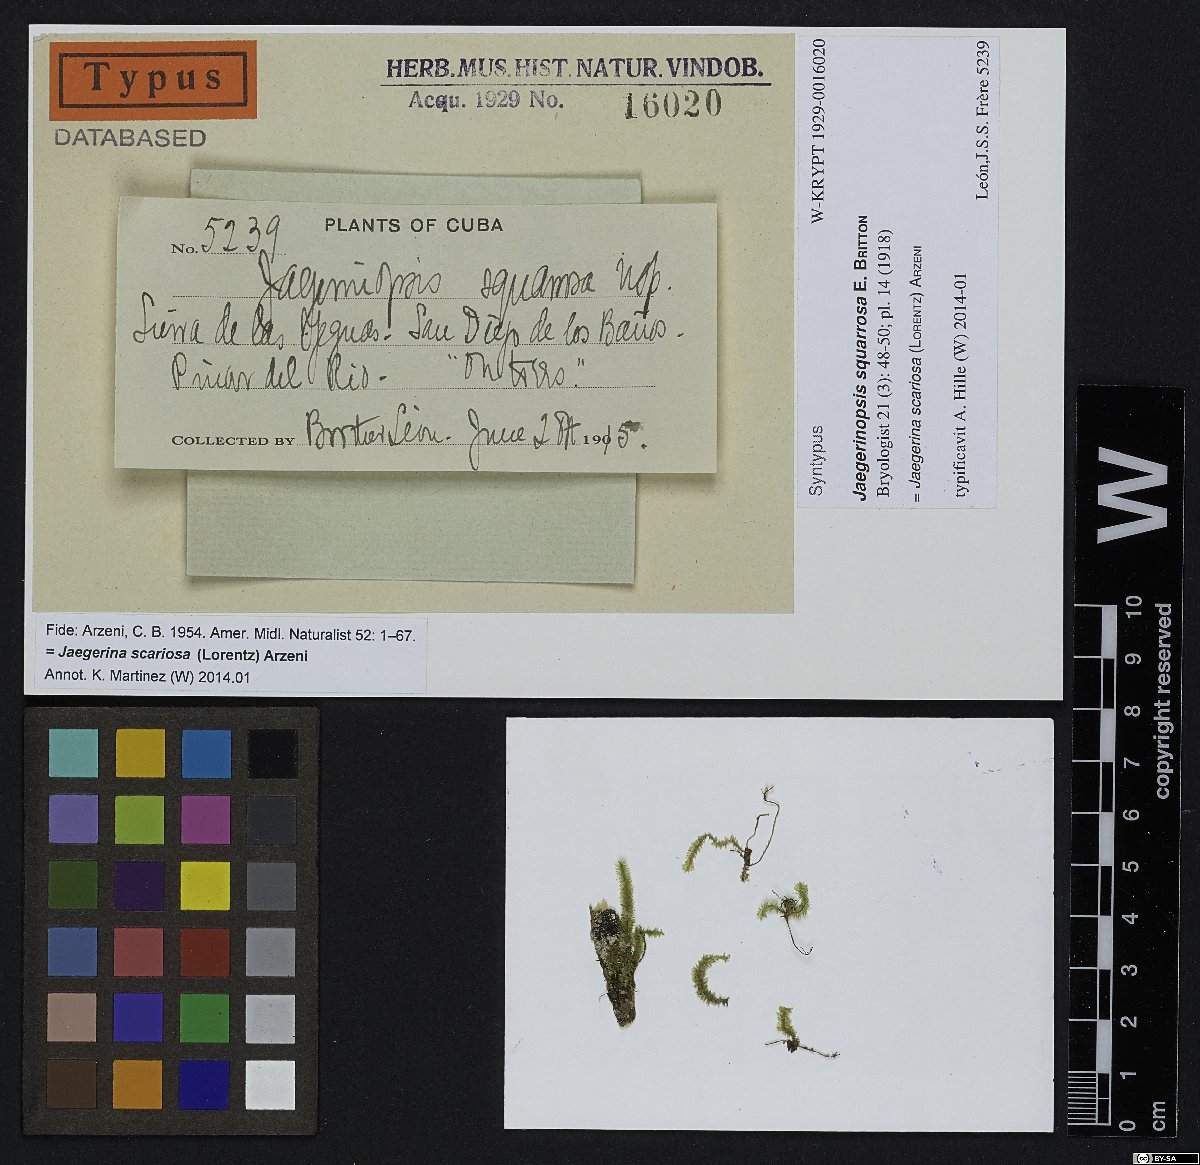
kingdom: Plantae
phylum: Bryophyta
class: Bryopsida
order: Hypnales
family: Pterobryaceae
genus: Jaegerina
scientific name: Jaegerina scariosa
